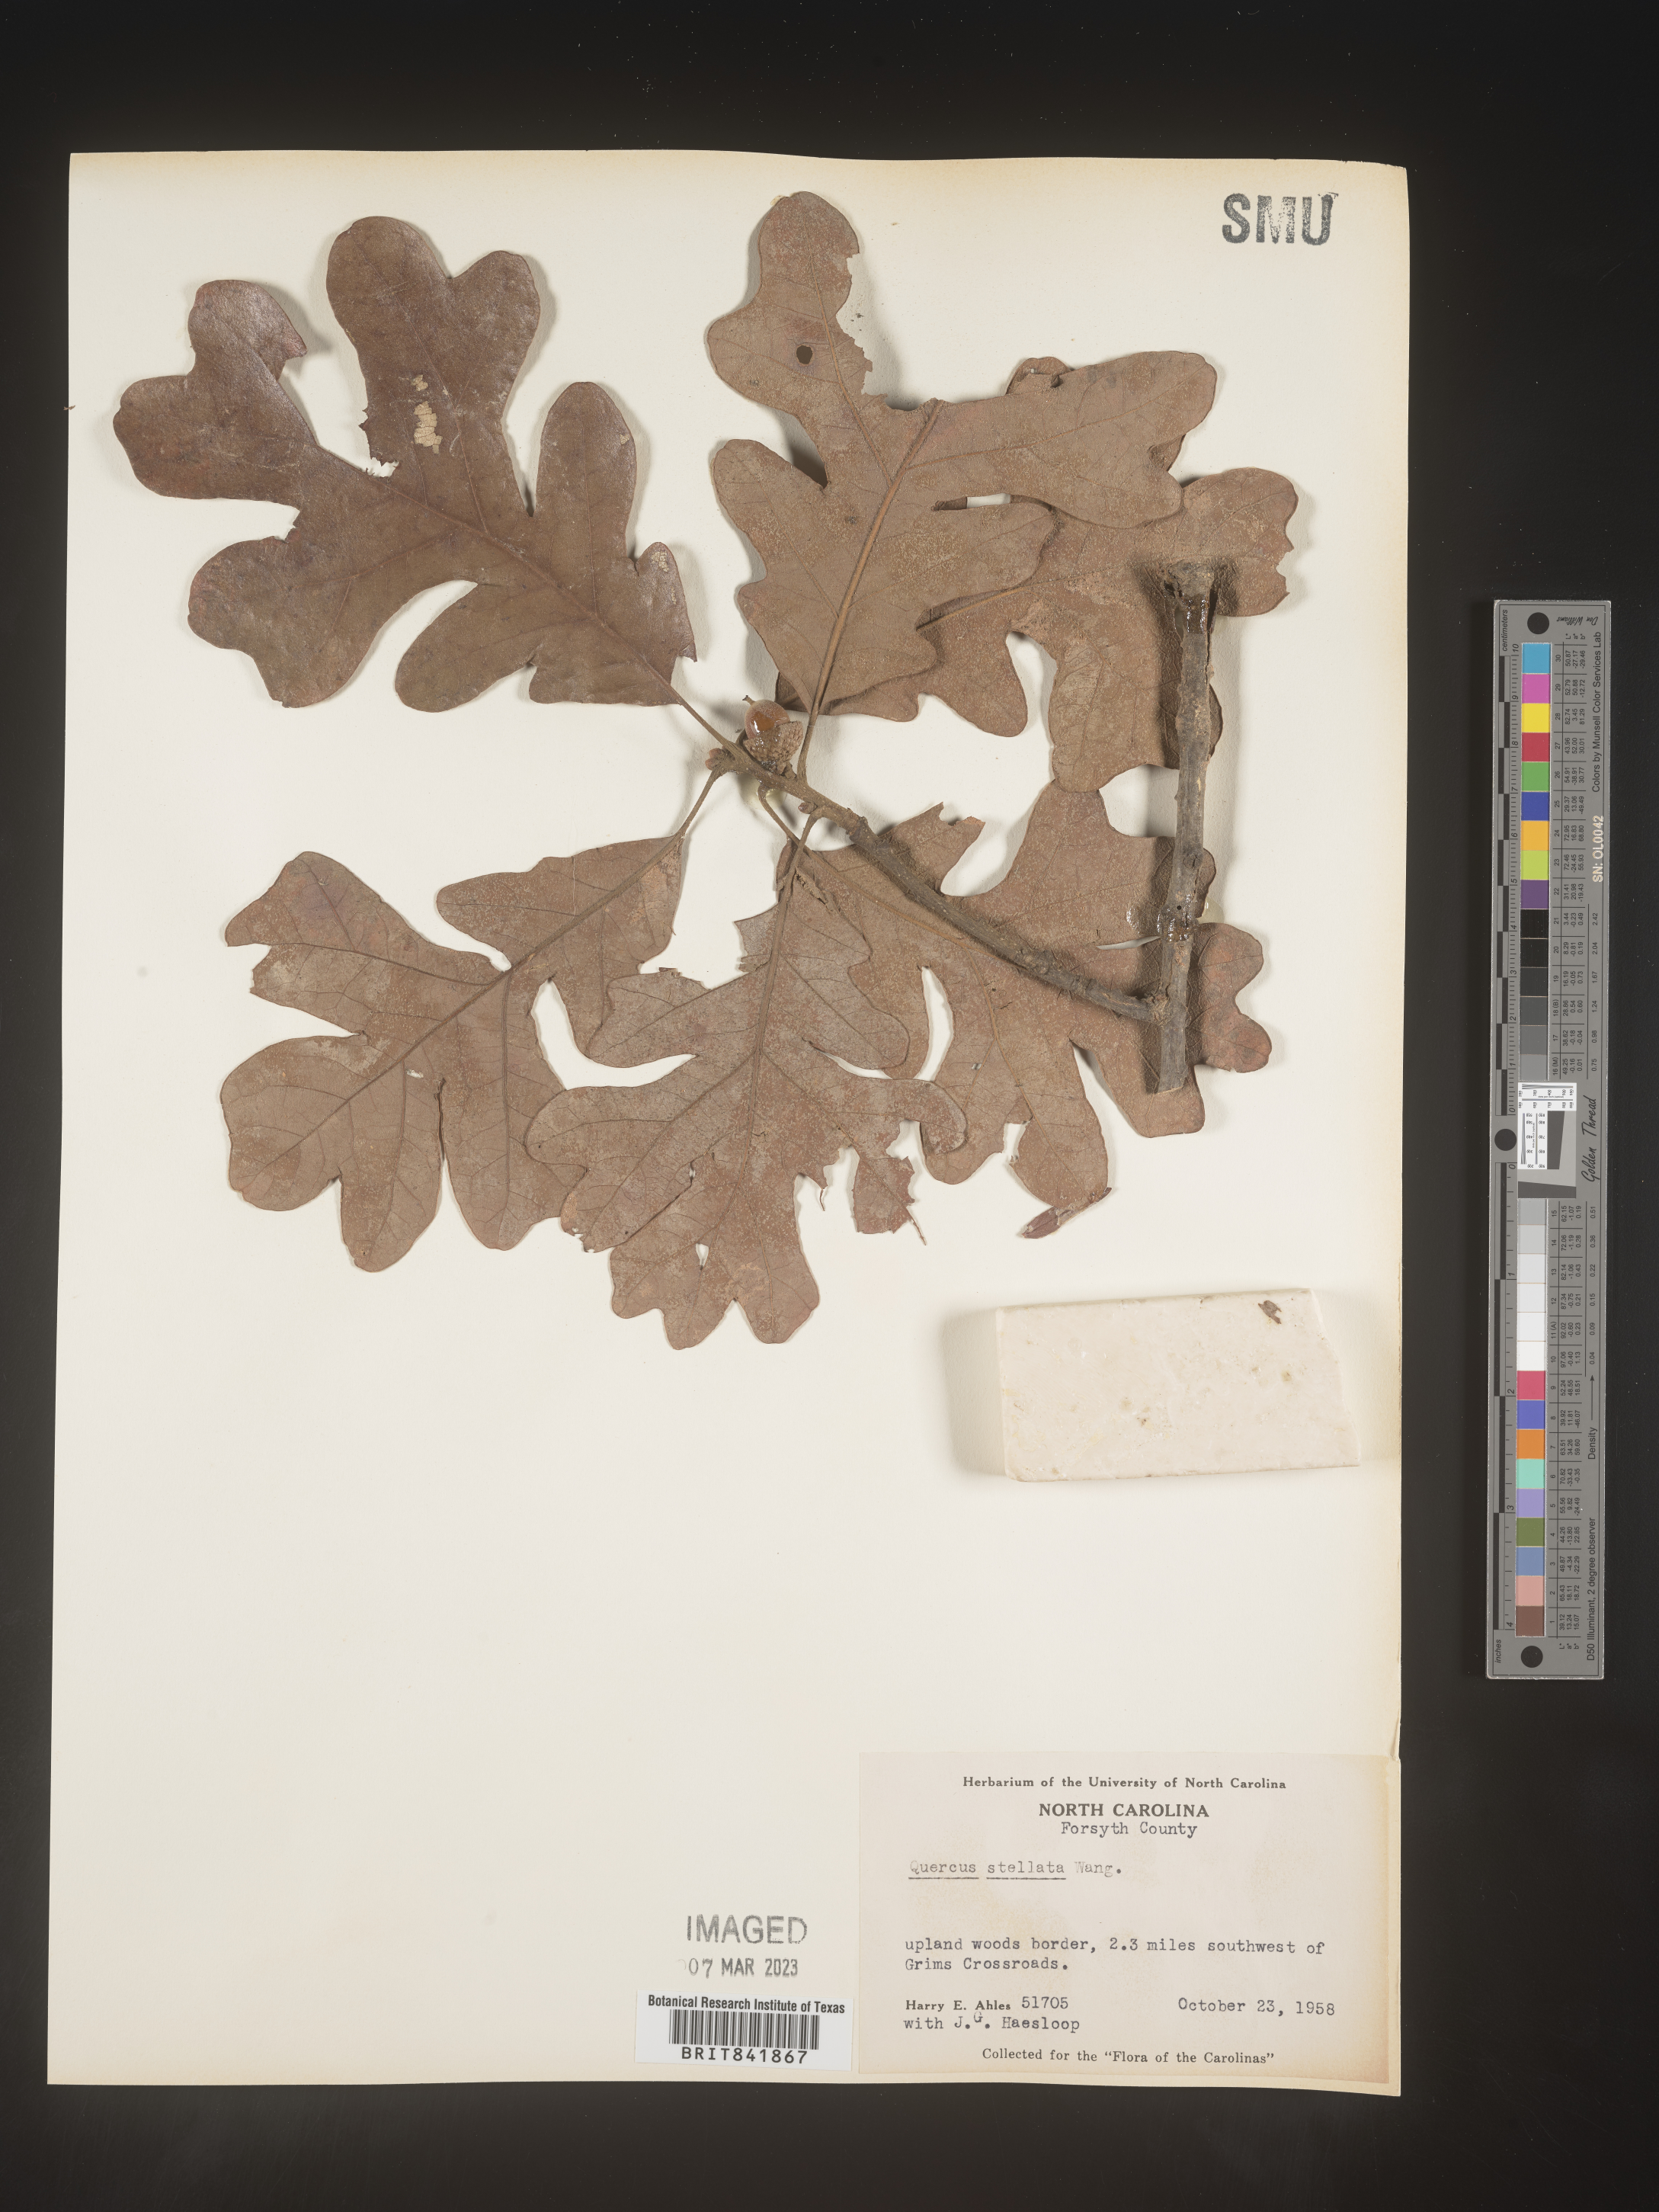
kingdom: Plantae
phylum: Tracheophyta
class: Magnoliopsida
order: Fagales
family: Fagaceae
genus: Quercus
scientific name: Quercus stellata
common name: Post oak
